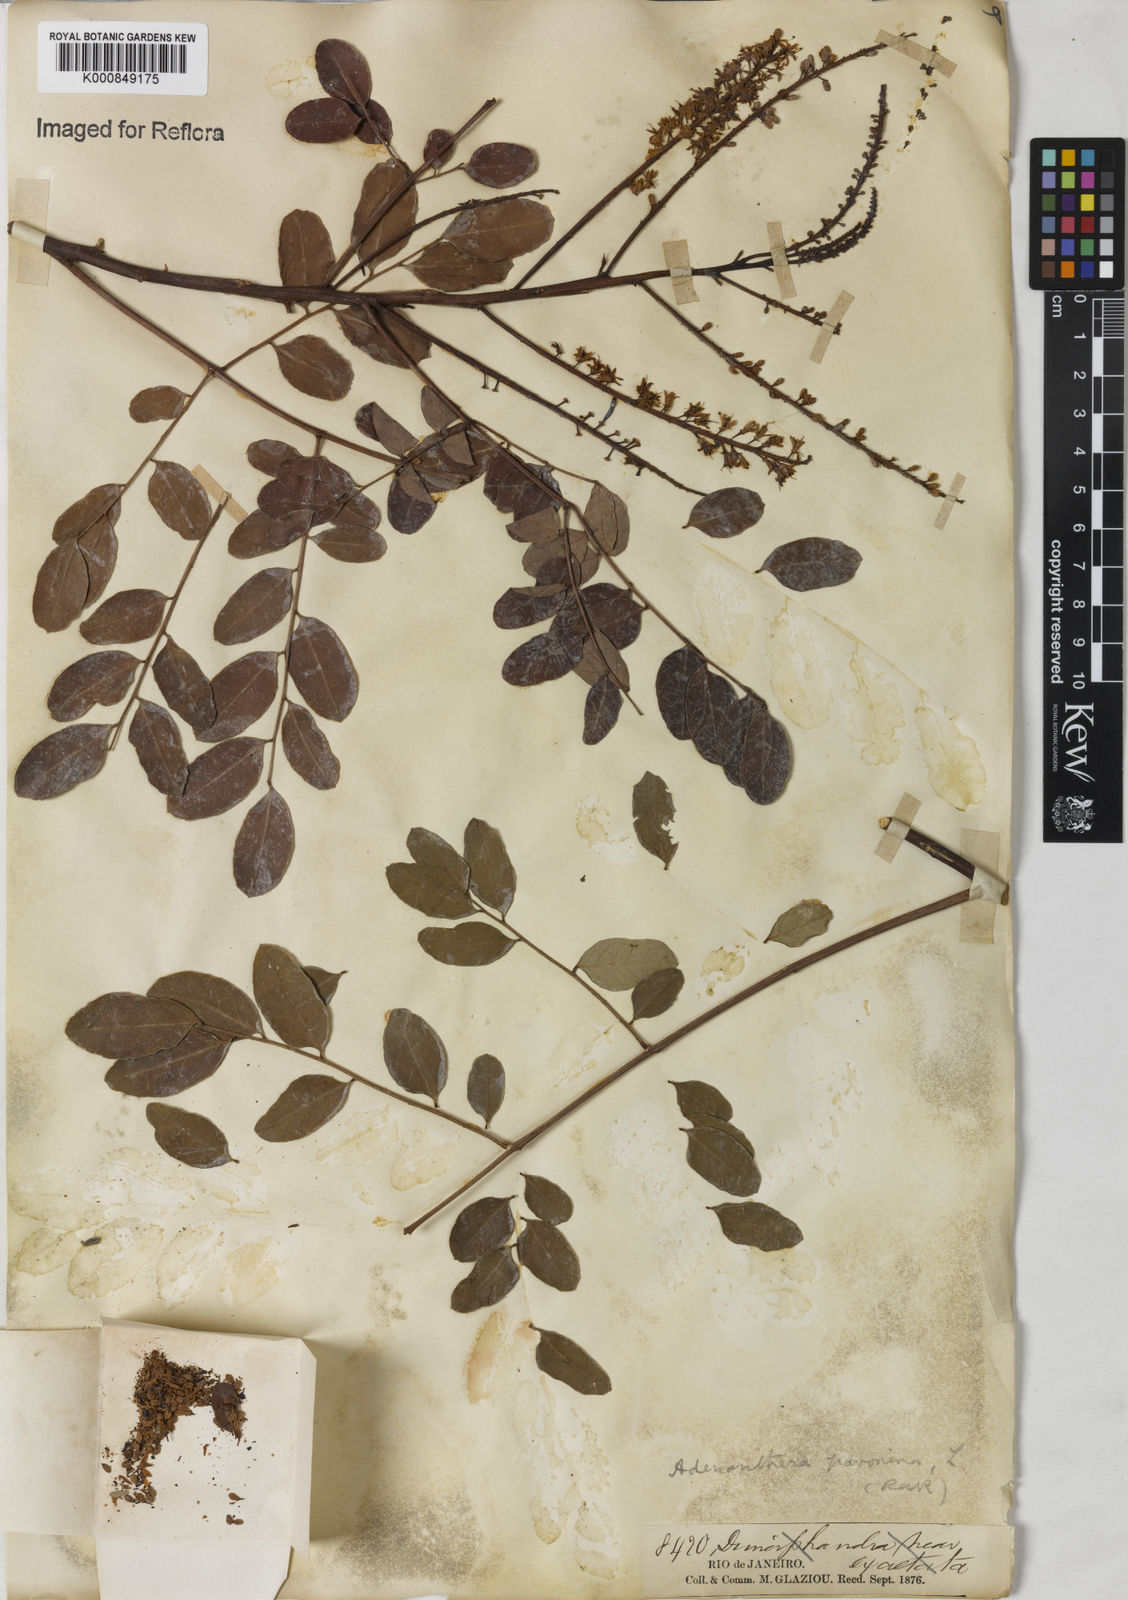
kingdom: Plantae
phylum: Tracheophyta
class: Magnoliopsida
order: Fabales
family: Fabaceae
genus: Adenanthera
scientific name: Adenanthera pavonina
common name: Red beadtree
